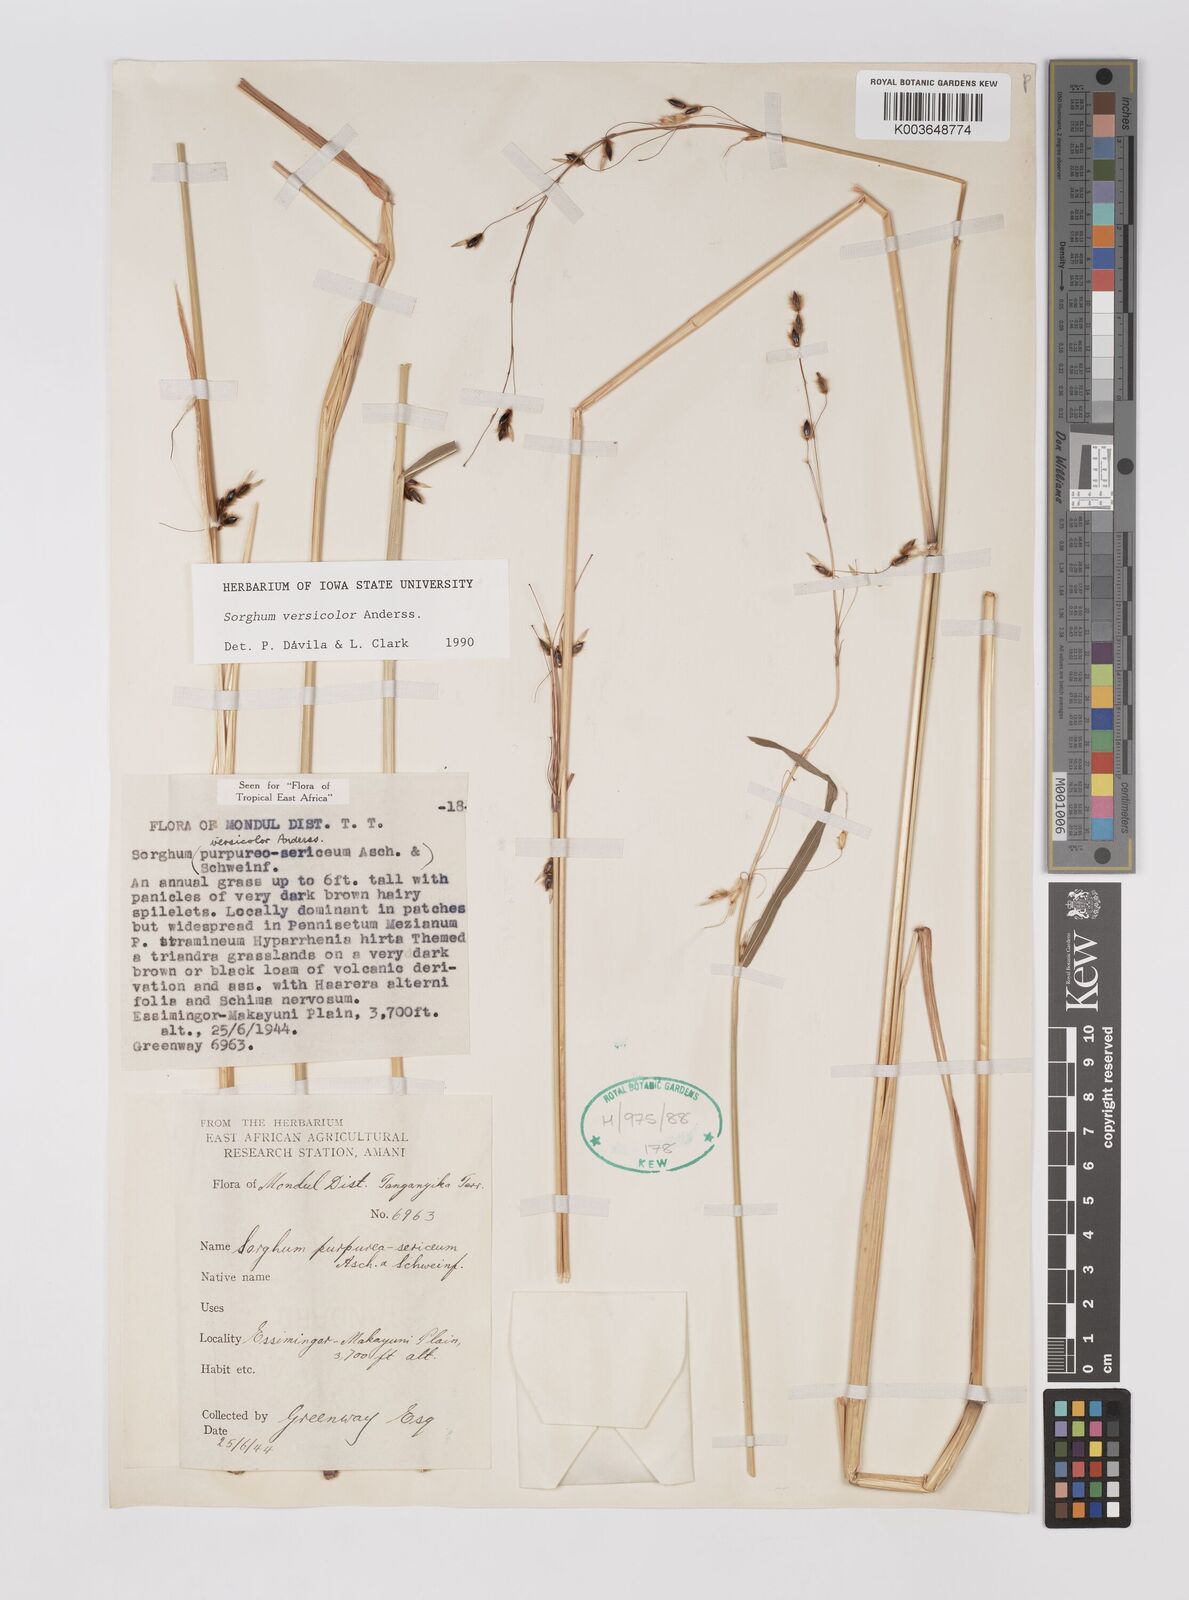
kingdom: Plantae
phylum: Tracheophyta
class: Liliopsida
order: Poales
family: Poaceae
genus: Sarga
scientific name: Sarga versicolor
